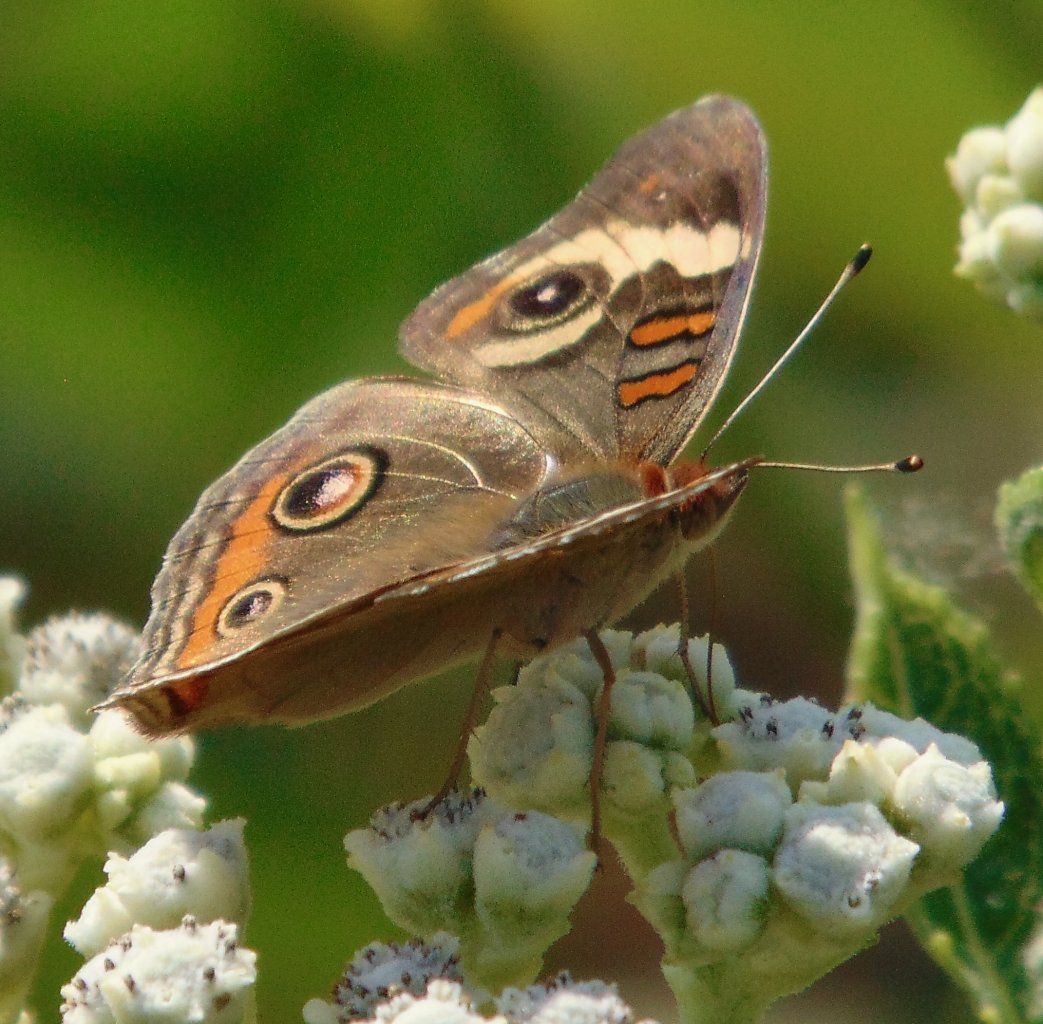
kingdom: Animalia
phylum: Arthropoda
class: Insecta
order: Lepidoptera
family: Nymphalidae
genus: Junonia
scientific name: Junonia coenia
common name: Common Buckeye
